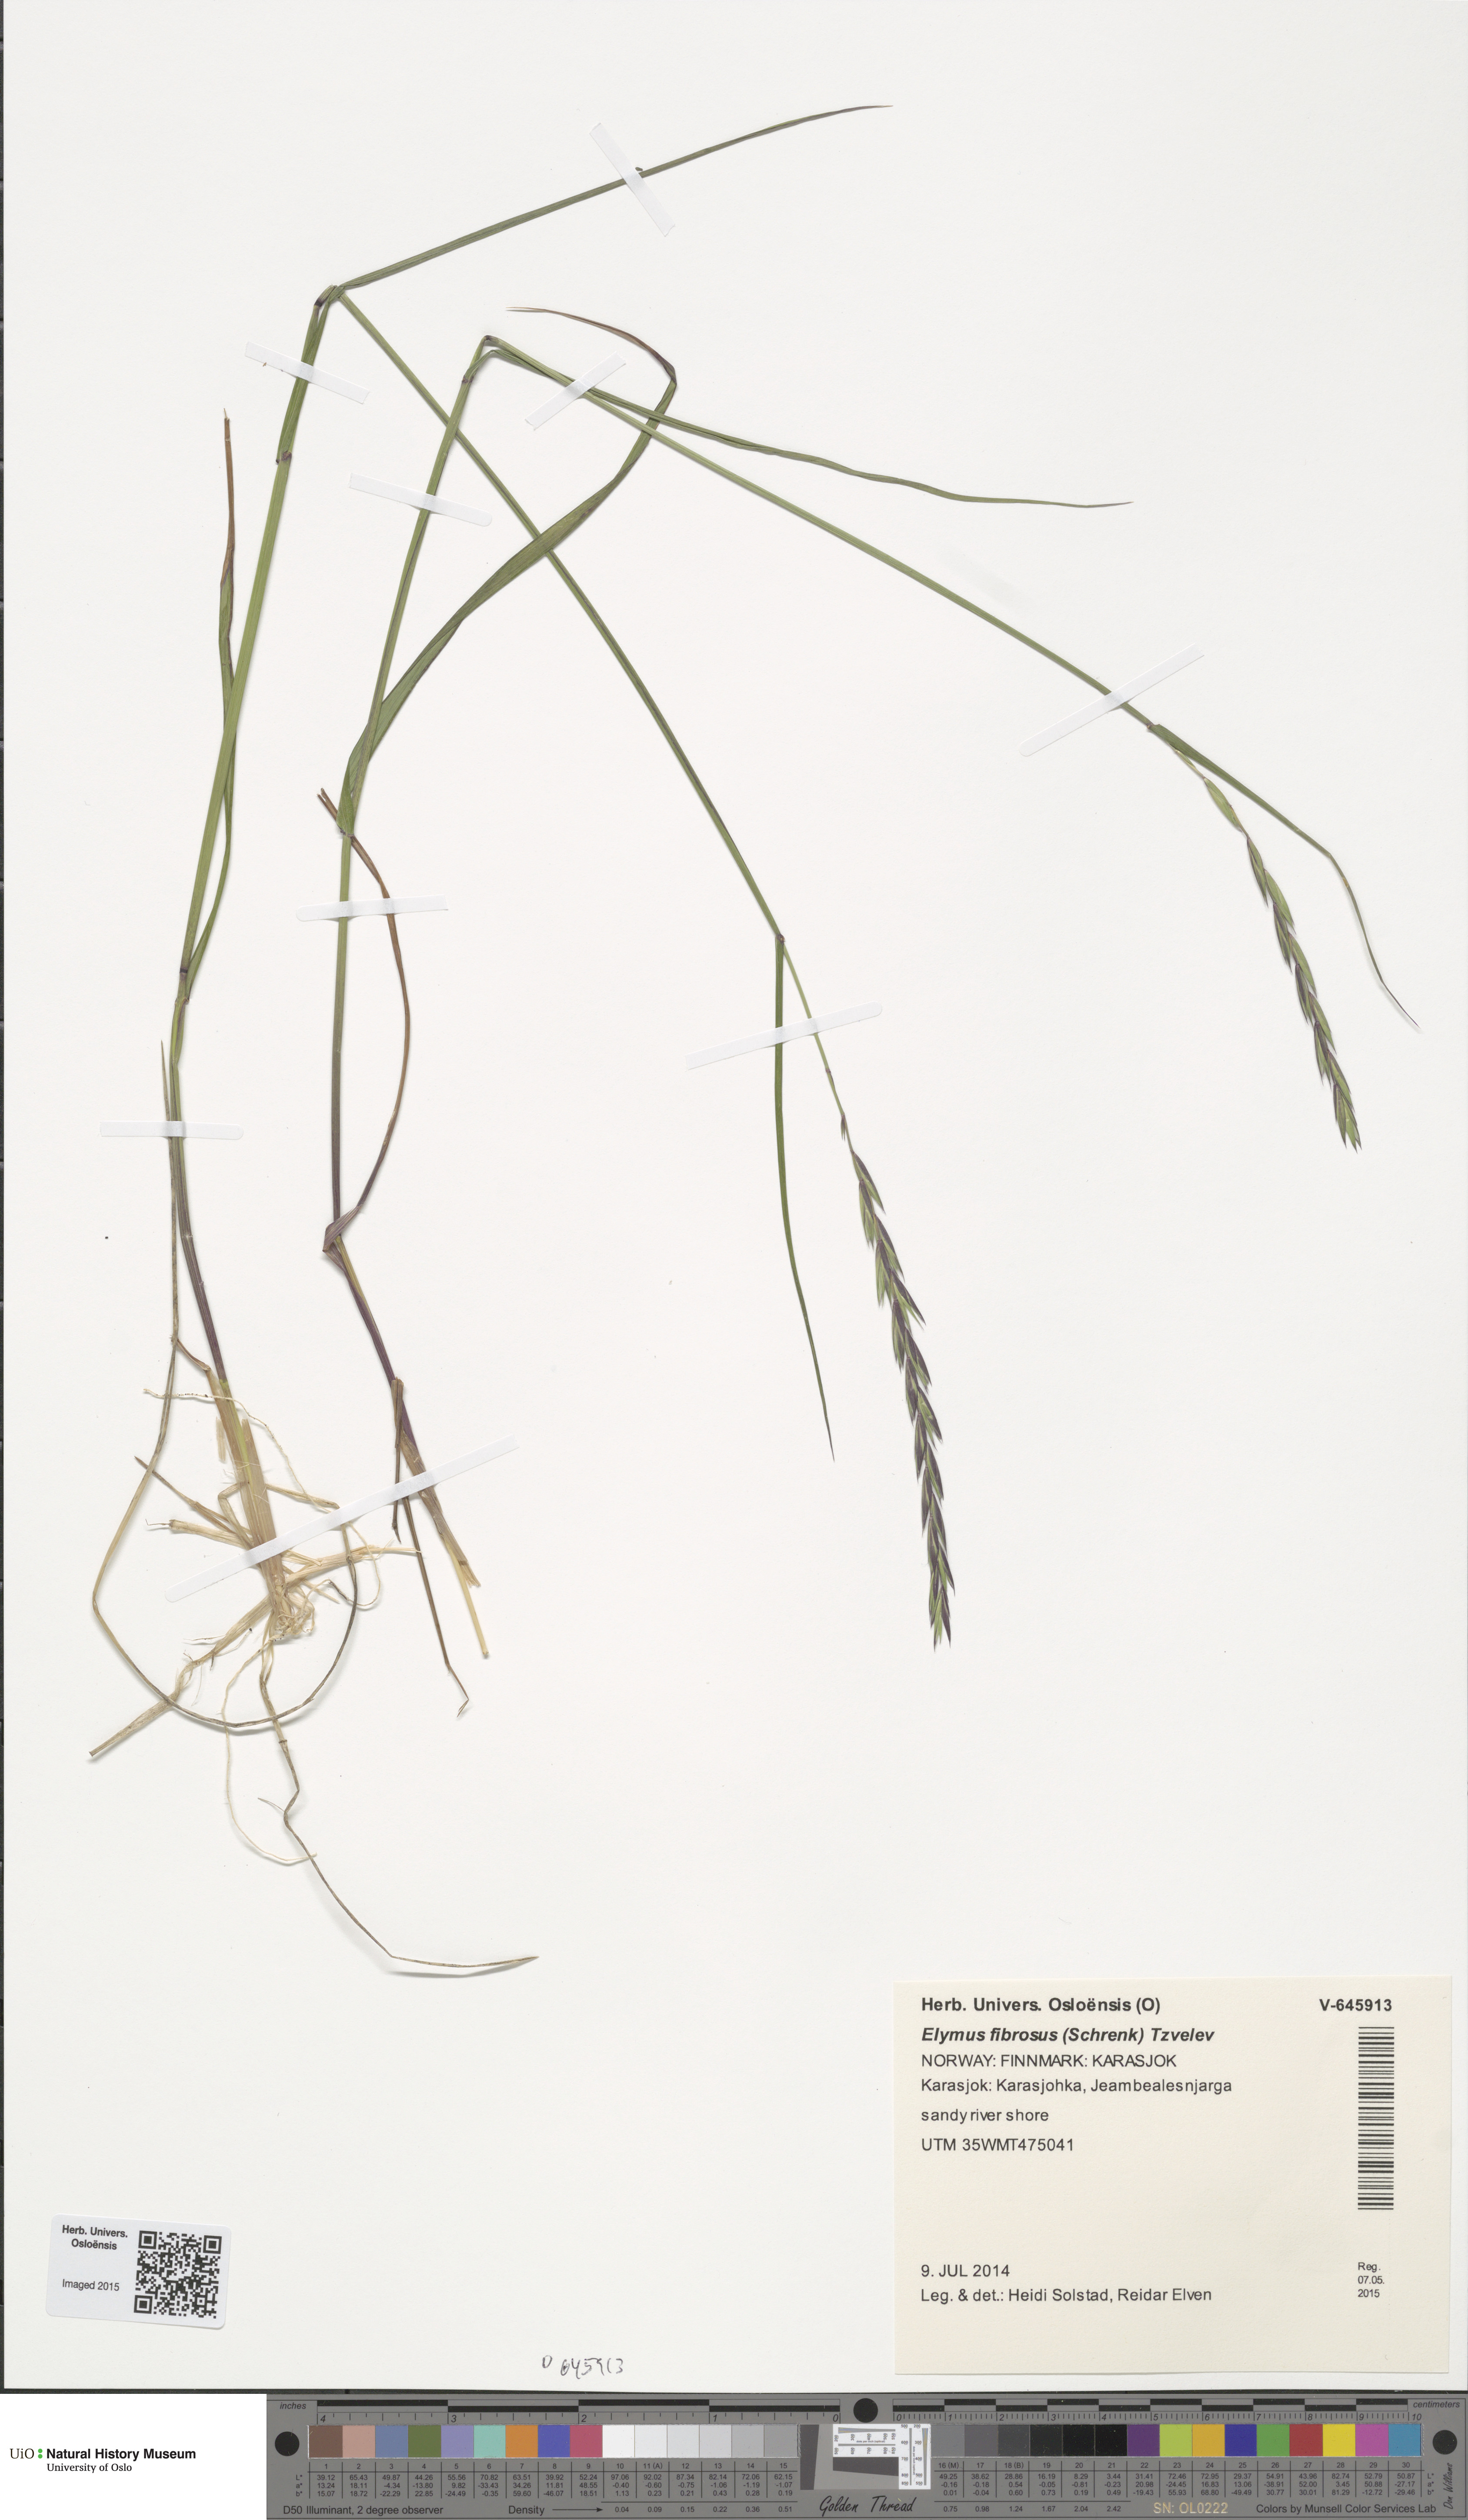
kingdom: Plantae
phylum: Tracheophyta
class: Liliopsida
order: Poales
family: Poaceae
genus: Elymus
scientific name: Elymus fibrosus
